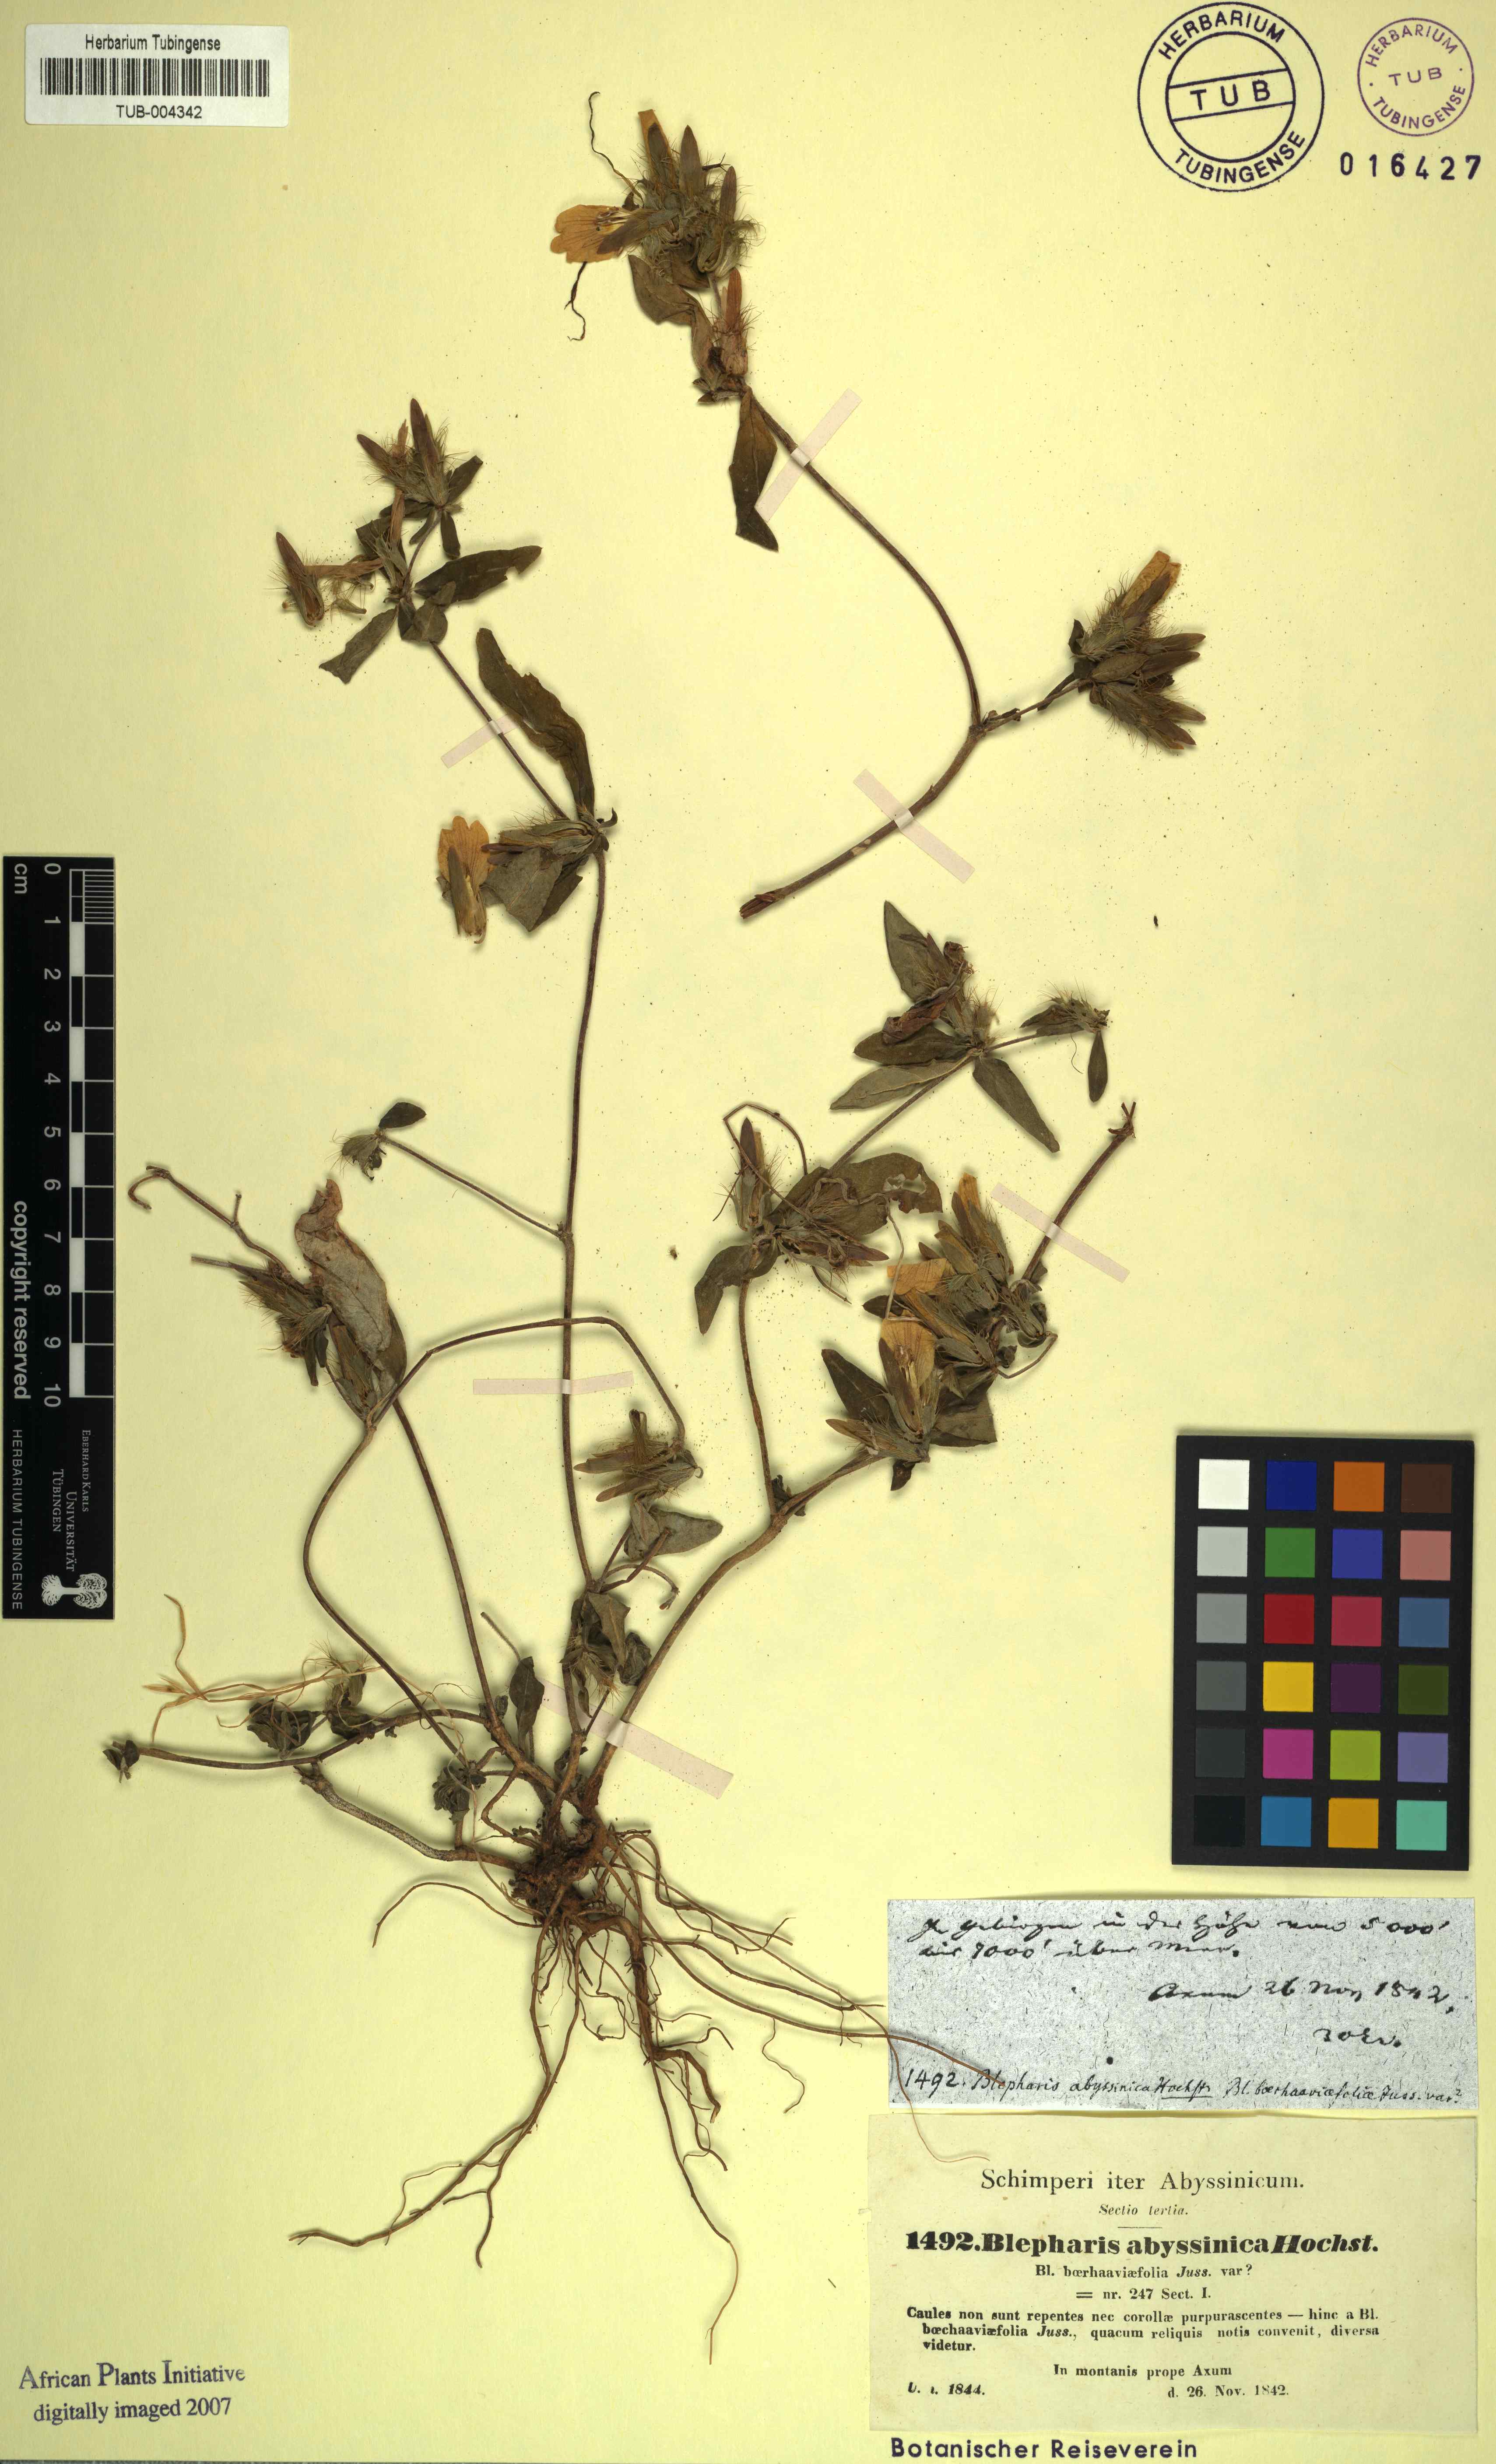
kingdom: Plantae
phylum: Tracheophyta
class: Magnoliopsida
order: Lamiales
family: Acanthaceae
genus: Blepharis
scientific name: Blepharis maderaspatensis
